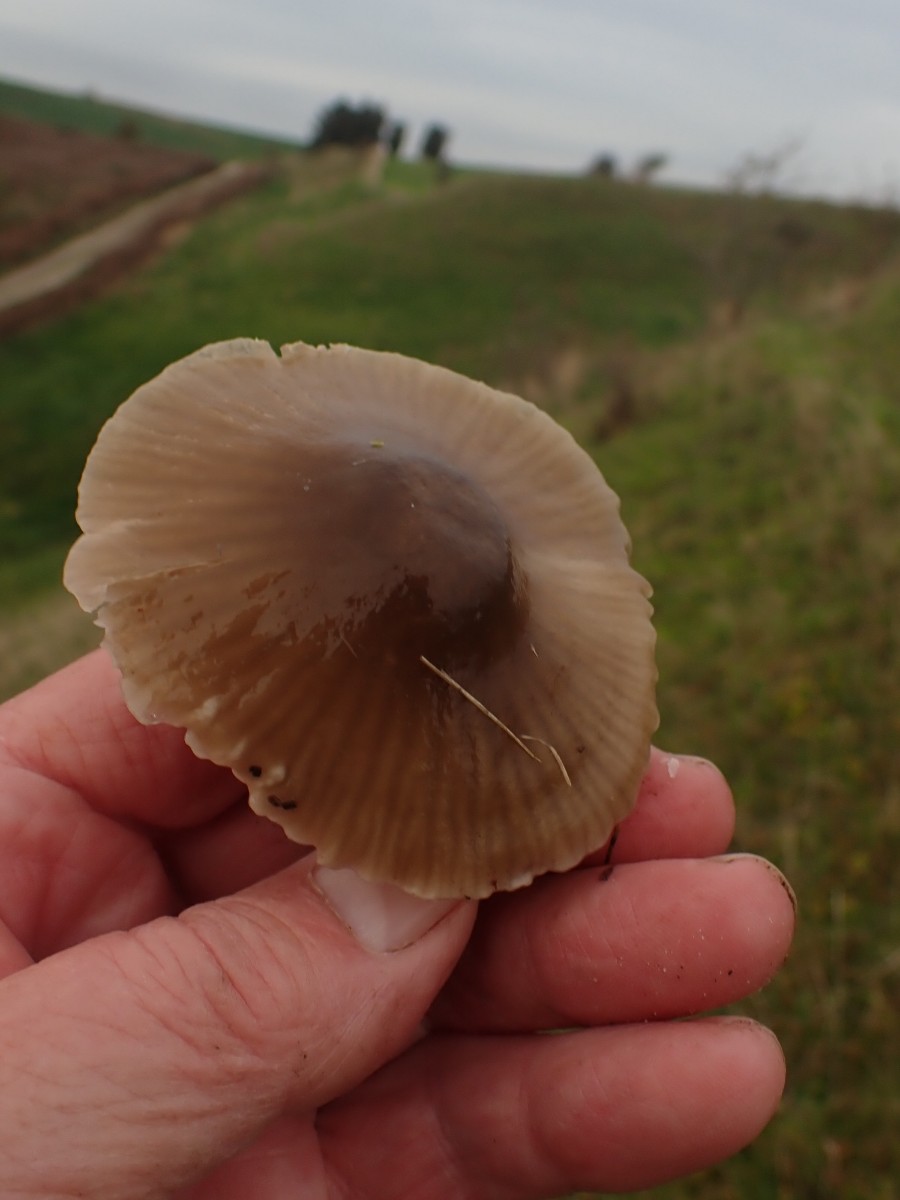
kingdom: Fungi
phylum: Basidiomycota
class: Agaricomycetes
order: Agaricales
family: Hygrophoraceae
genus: Gliophorus
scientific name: Gliophorus irrigatus
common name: slimet vokshat
